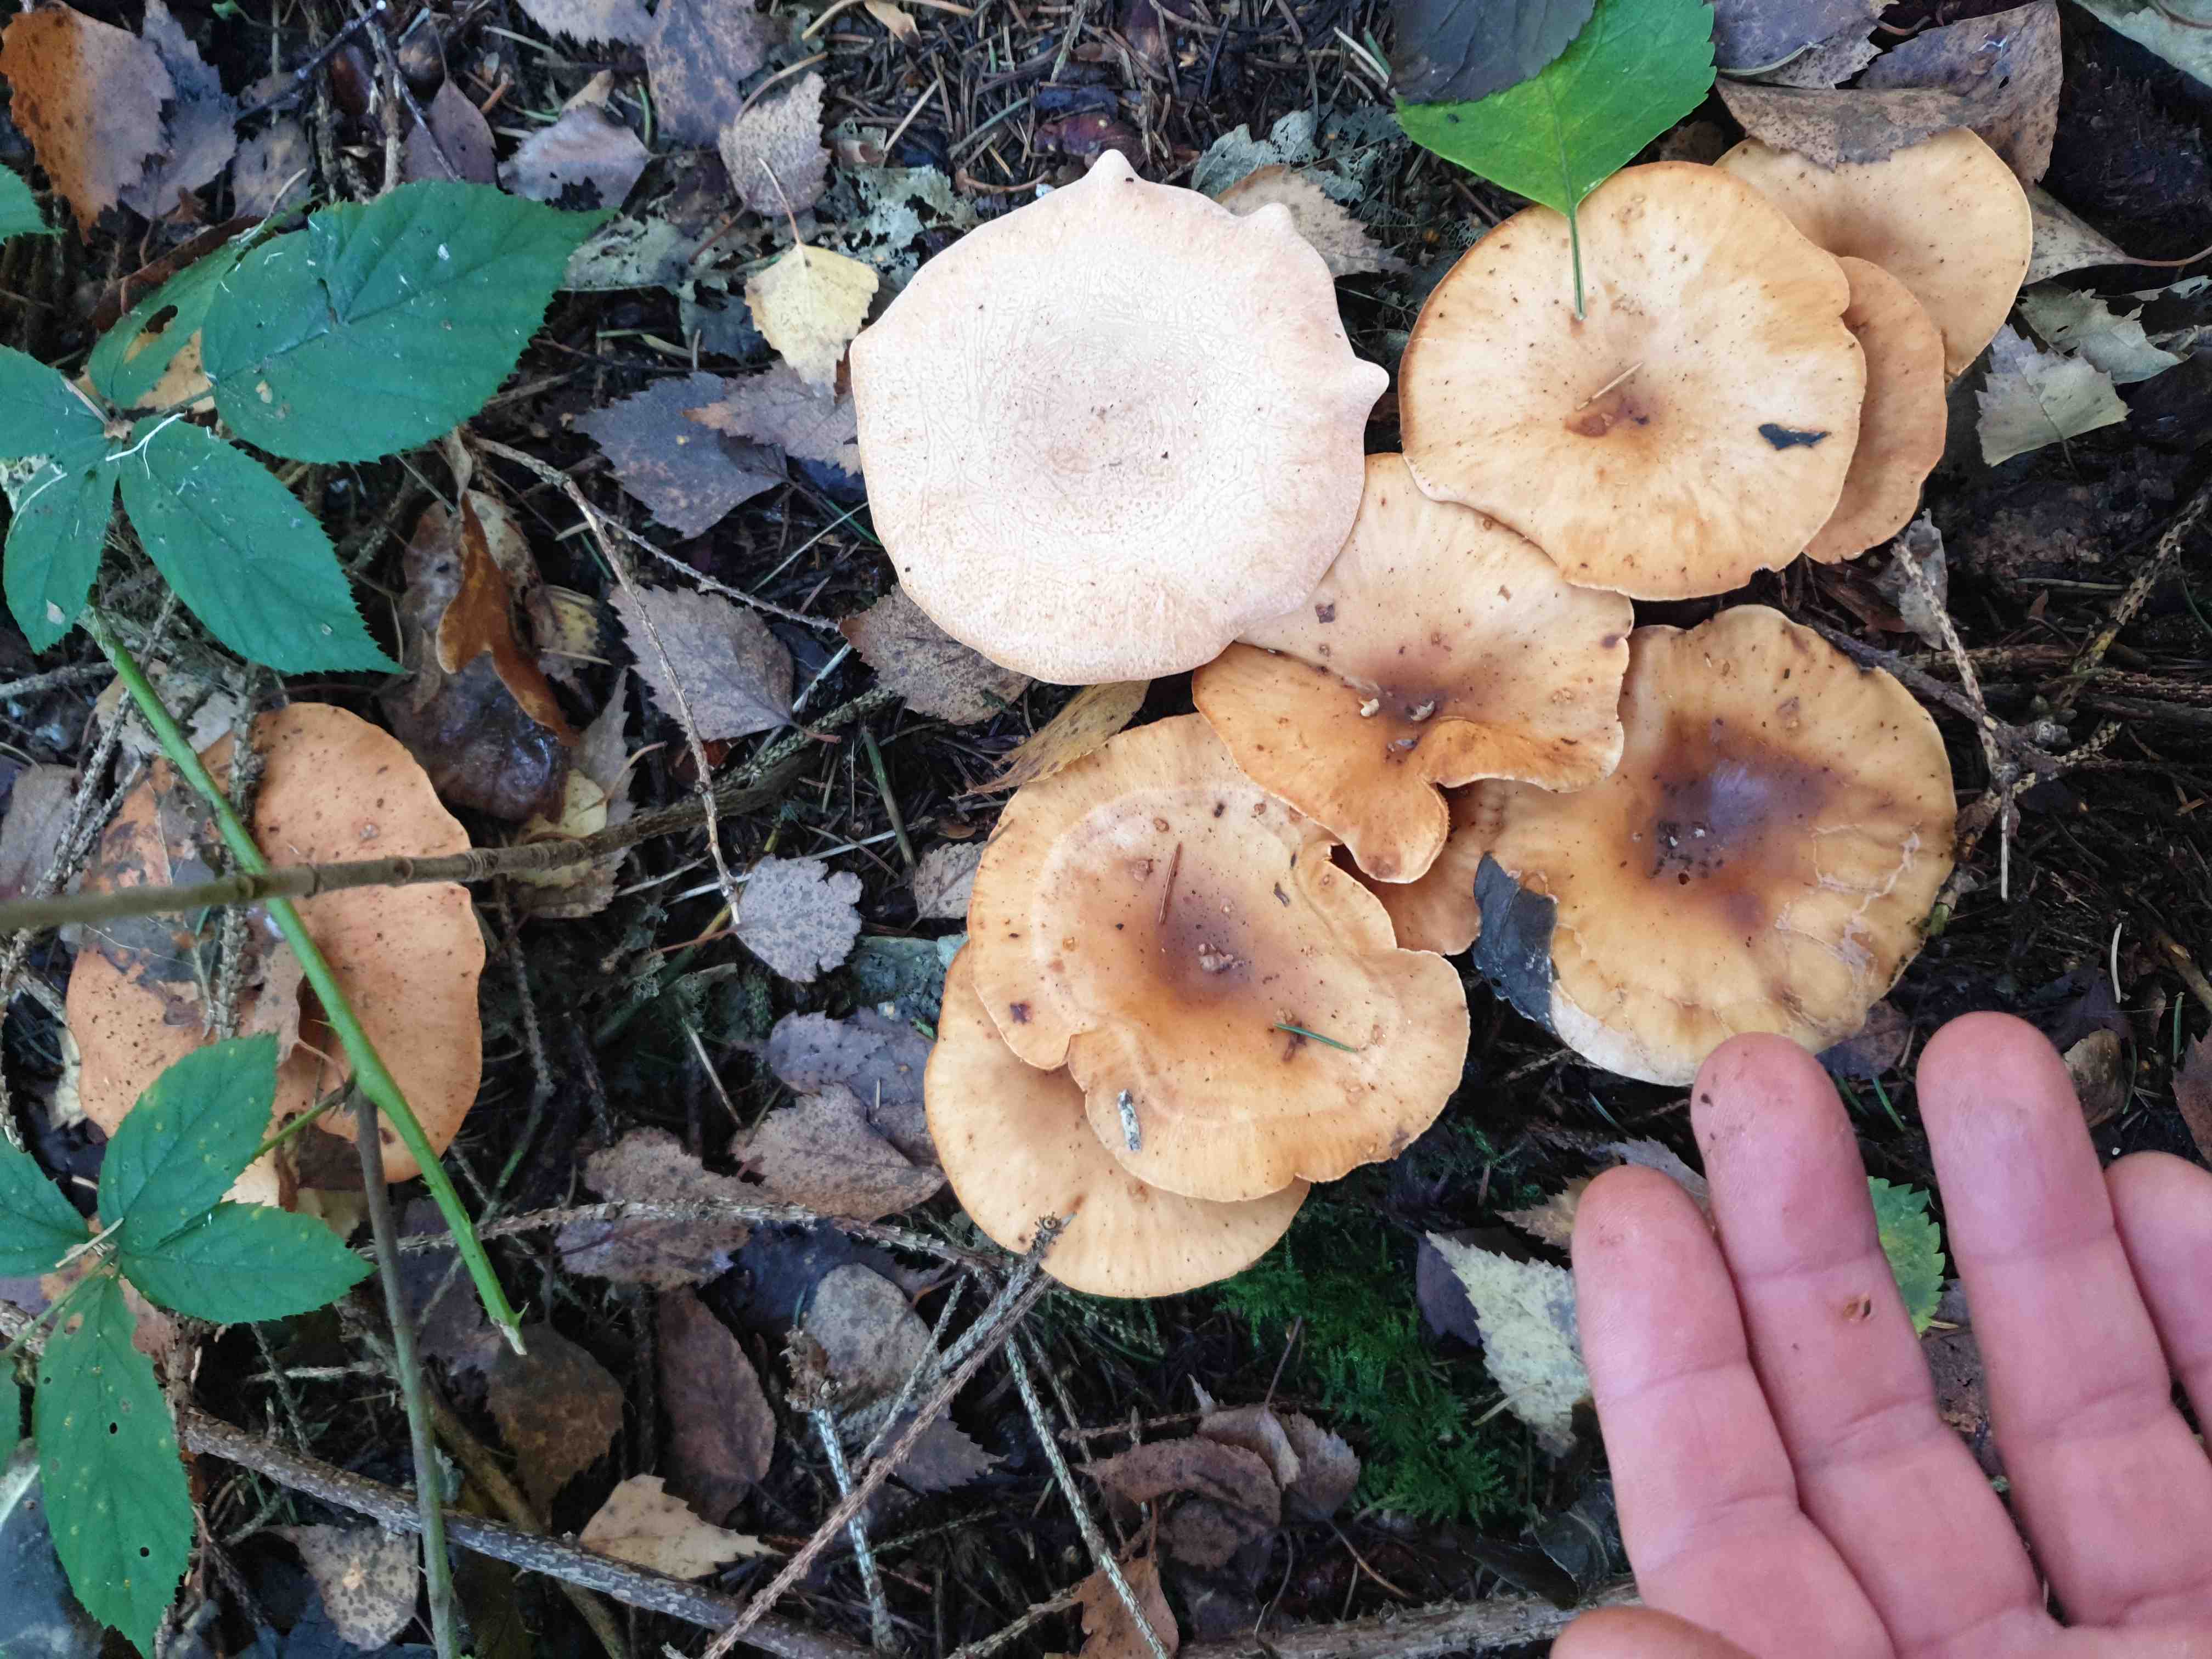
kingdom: Fungi
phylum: Basidiomycota
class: Agaricomycetes
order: Agaricales
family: Tricholomataceae
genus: Paralepista
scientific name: Paralepista flaccida
